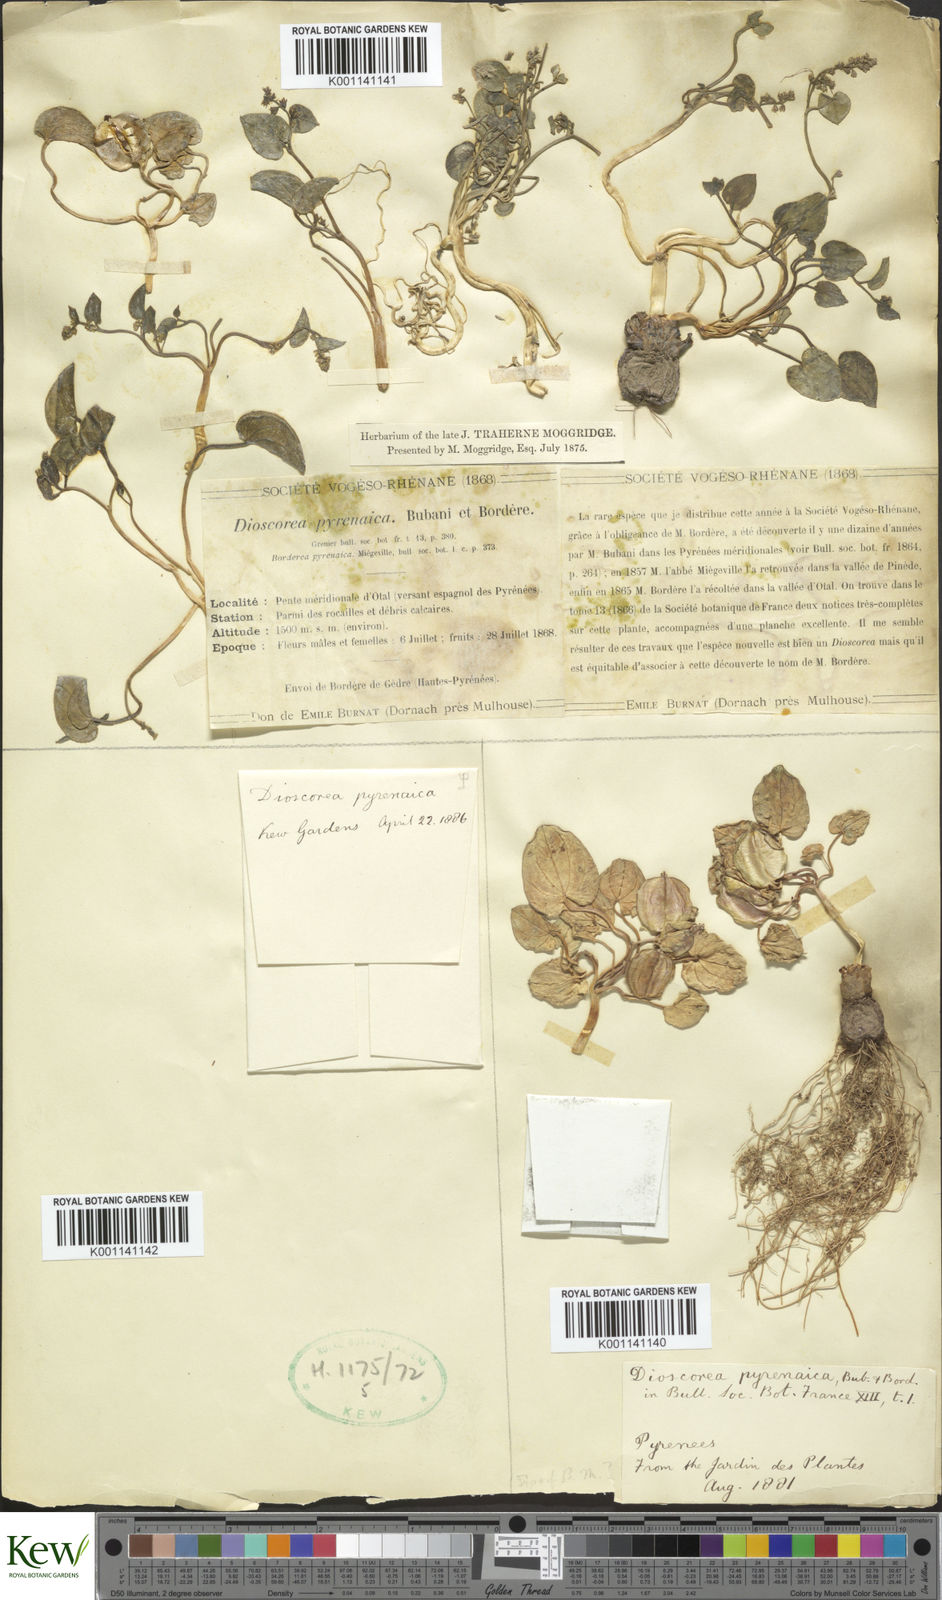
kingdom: Plantae
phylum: Tracheophyta
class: Liliopsida
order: Dioscoreales
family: Dioscoreaceae
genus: Dioscorea
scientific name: Dioscorea
